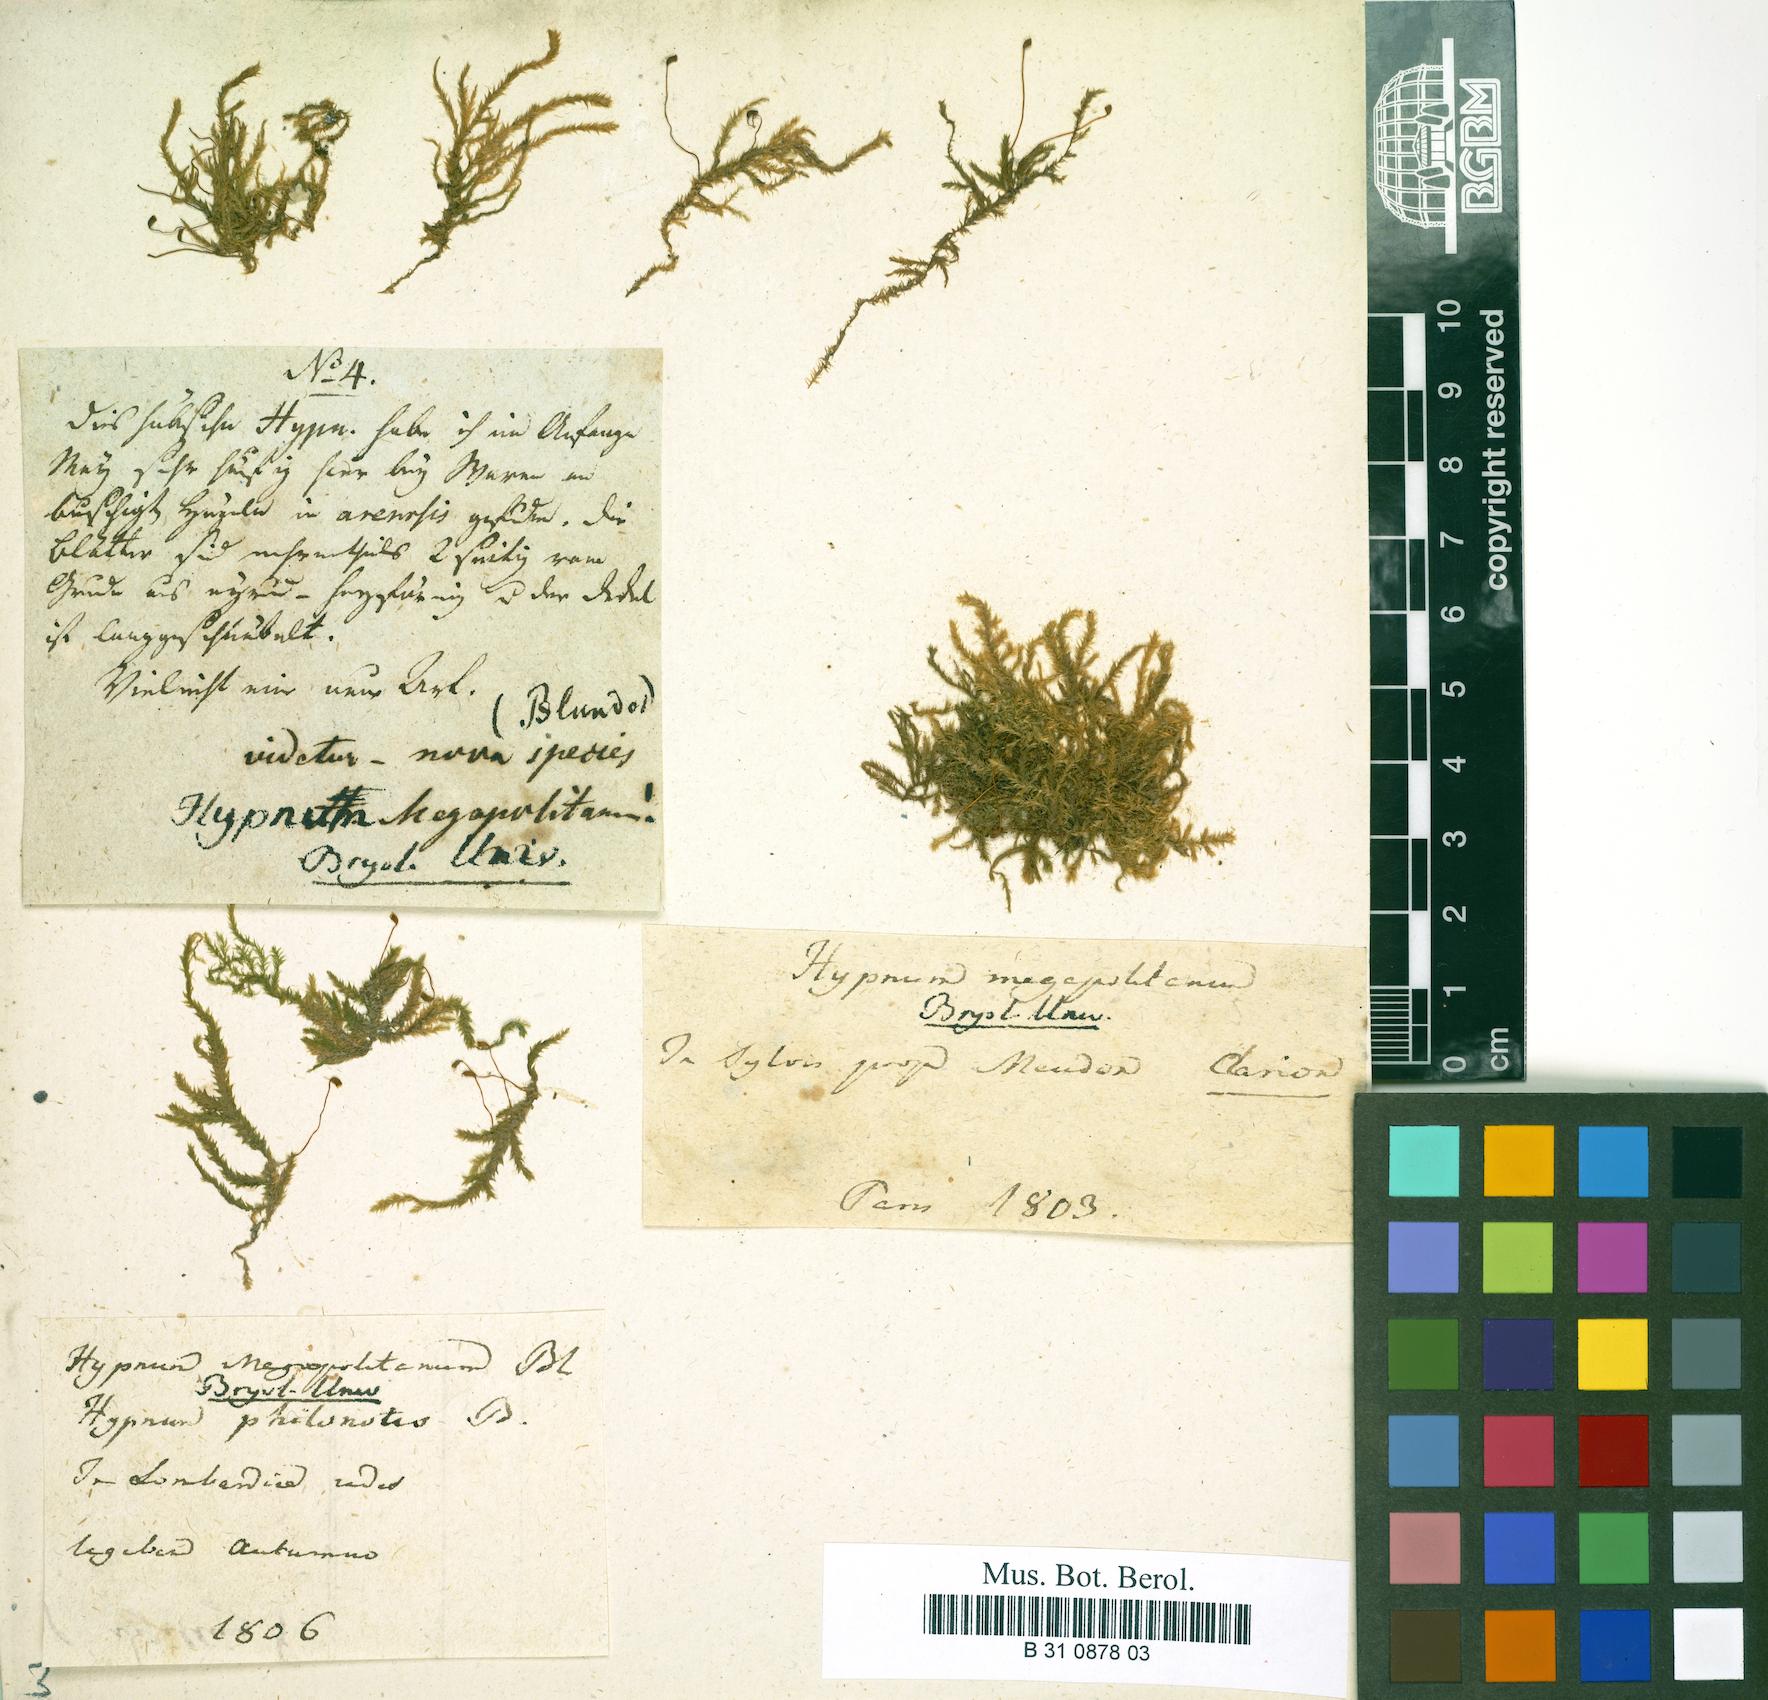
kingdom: Plantae
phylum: Bryophyta
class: Bryopsida
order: Hypnales
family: Brachytheciaceae
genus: Rhynchostegium
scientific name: Rhynchostegium megapolitanum
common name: Megapolitan feather-moss
